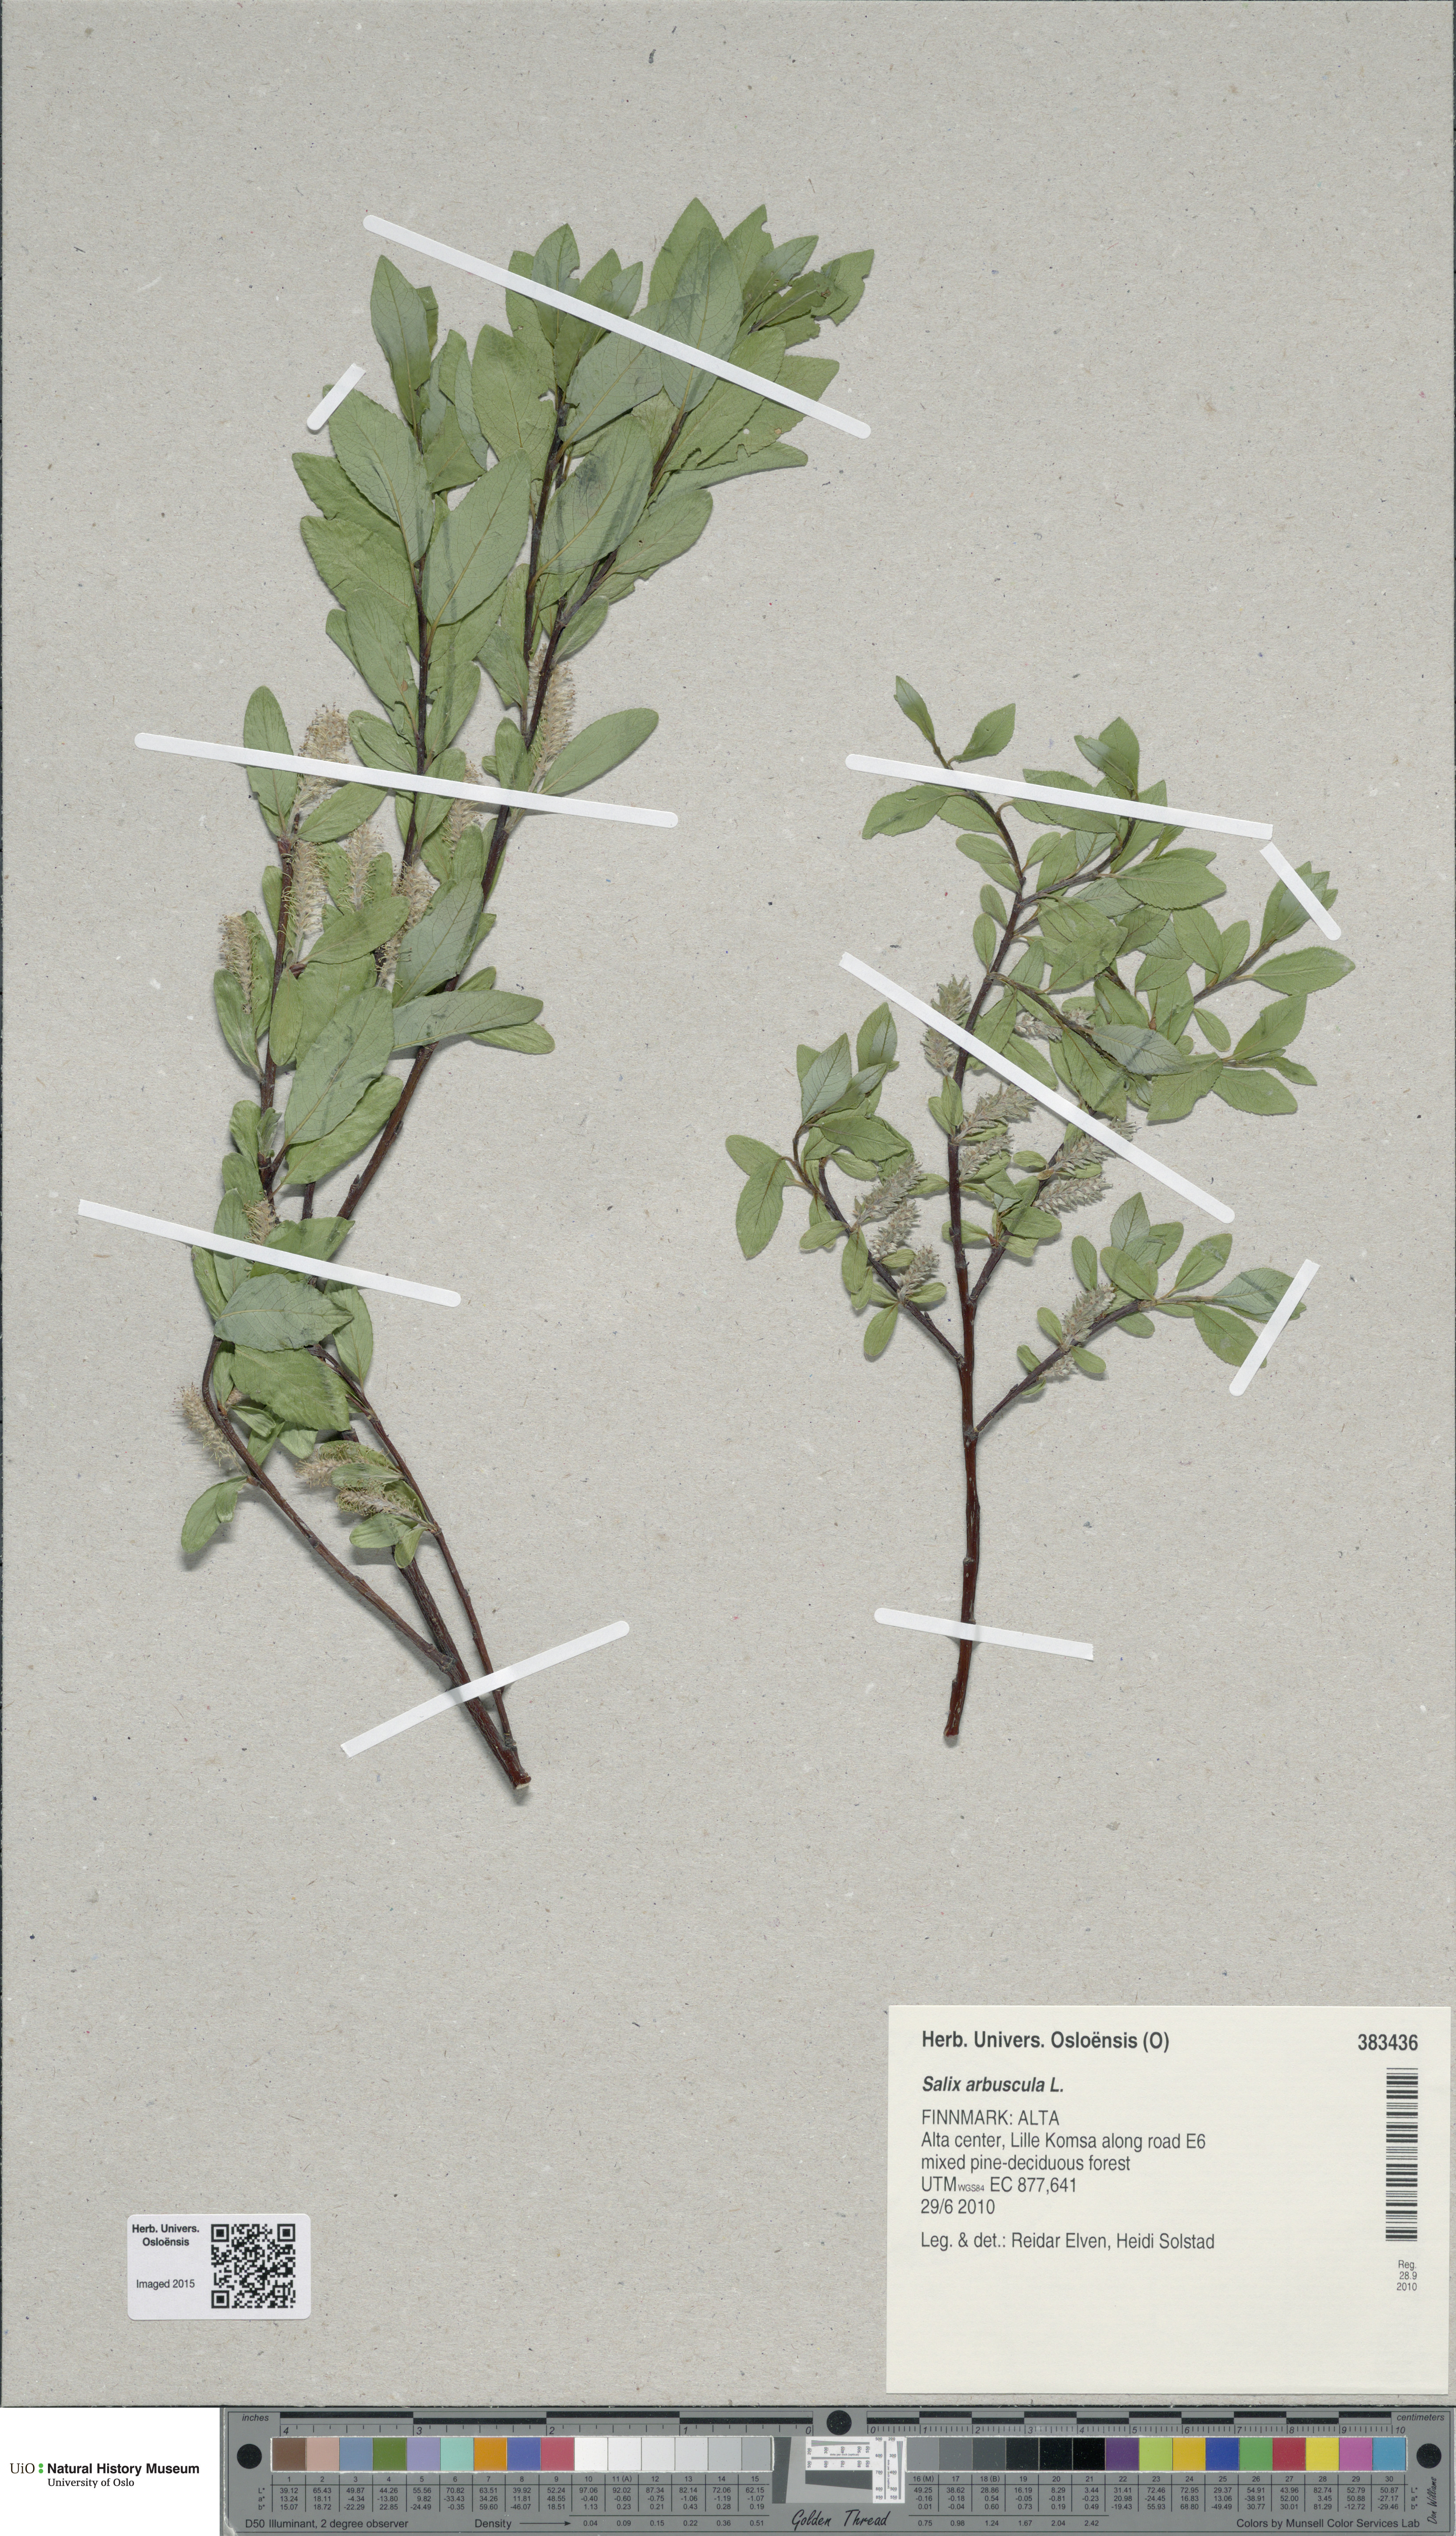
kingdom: Plantae
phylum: Tracheophyta
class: Magnoliopsida
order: Malpighiales
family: Salicaceae
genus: Salix
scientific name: Salix arbuscula
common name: Mountain willow
